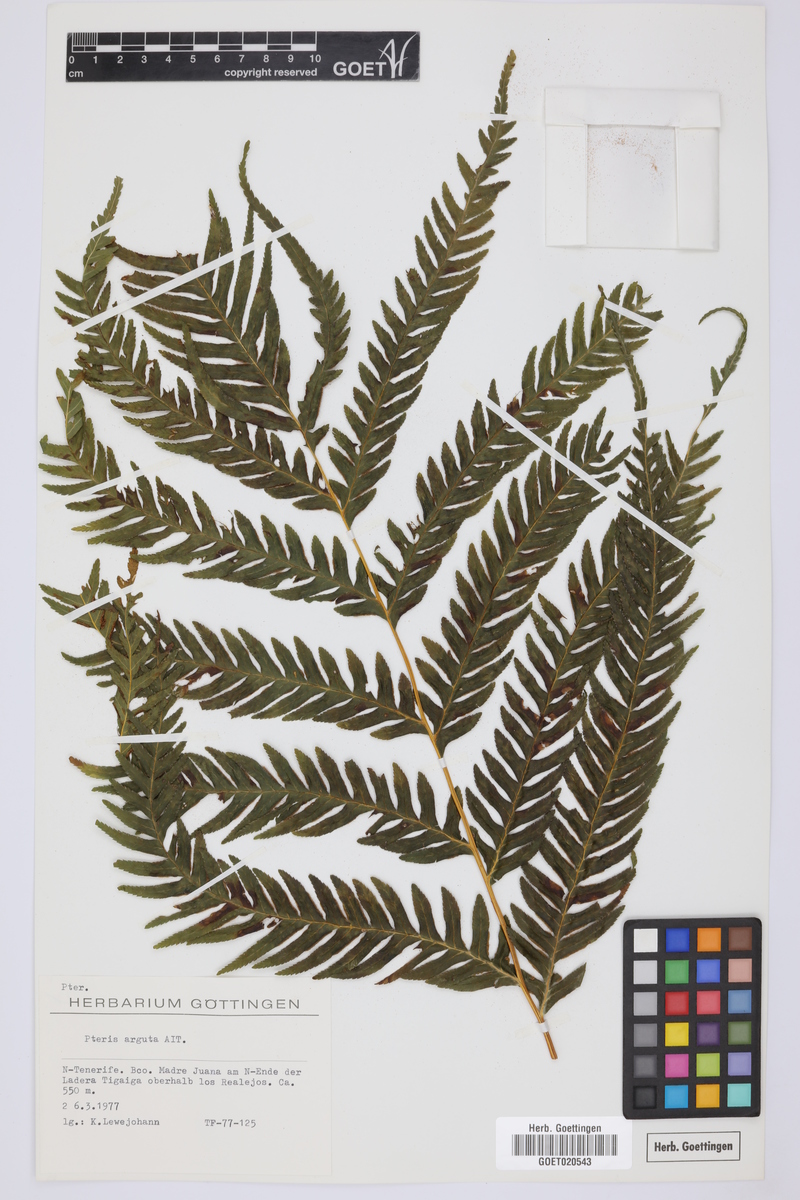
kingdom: Plantae
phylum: Tracheophyta
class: Polypodiopsida
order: Polypodiales
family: Pteridaceae
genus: Pteris
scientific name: Pteris dentata
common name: Toothed brake
